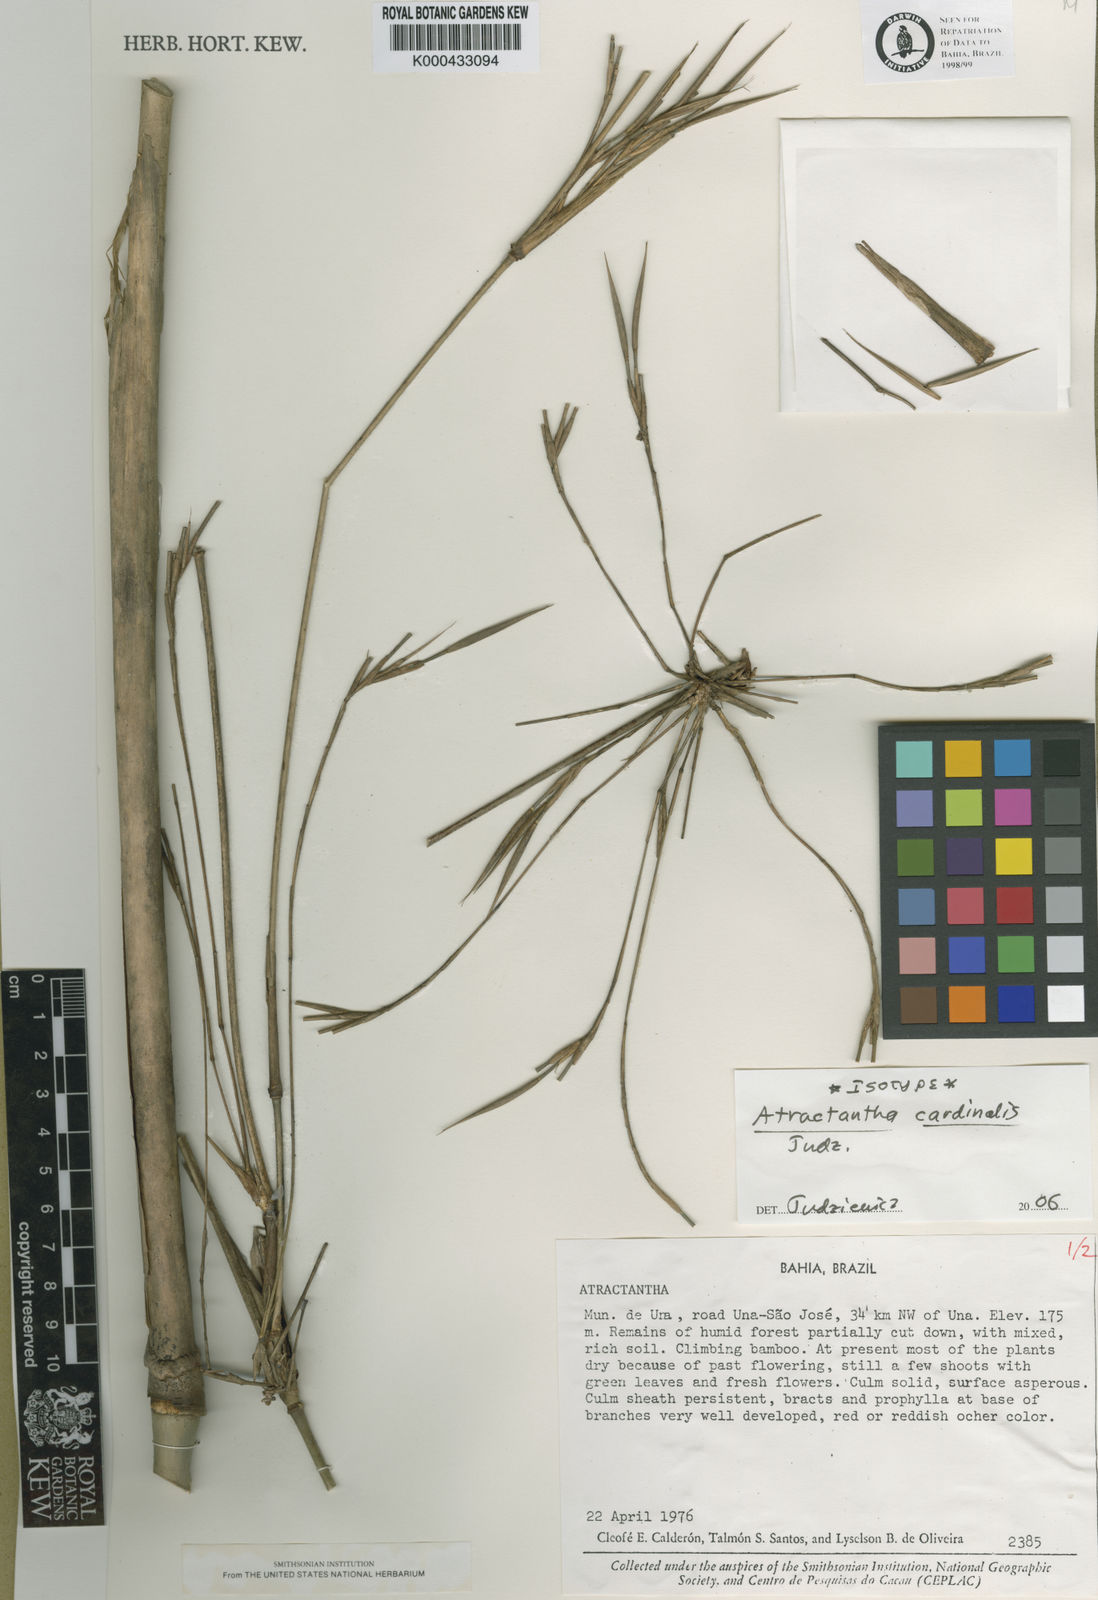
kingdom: Plantae
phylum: Tracheophyta
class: Liliopsida
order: Poales
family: Poaceae
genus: Atractantha
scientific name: Atractantha cardinalis
